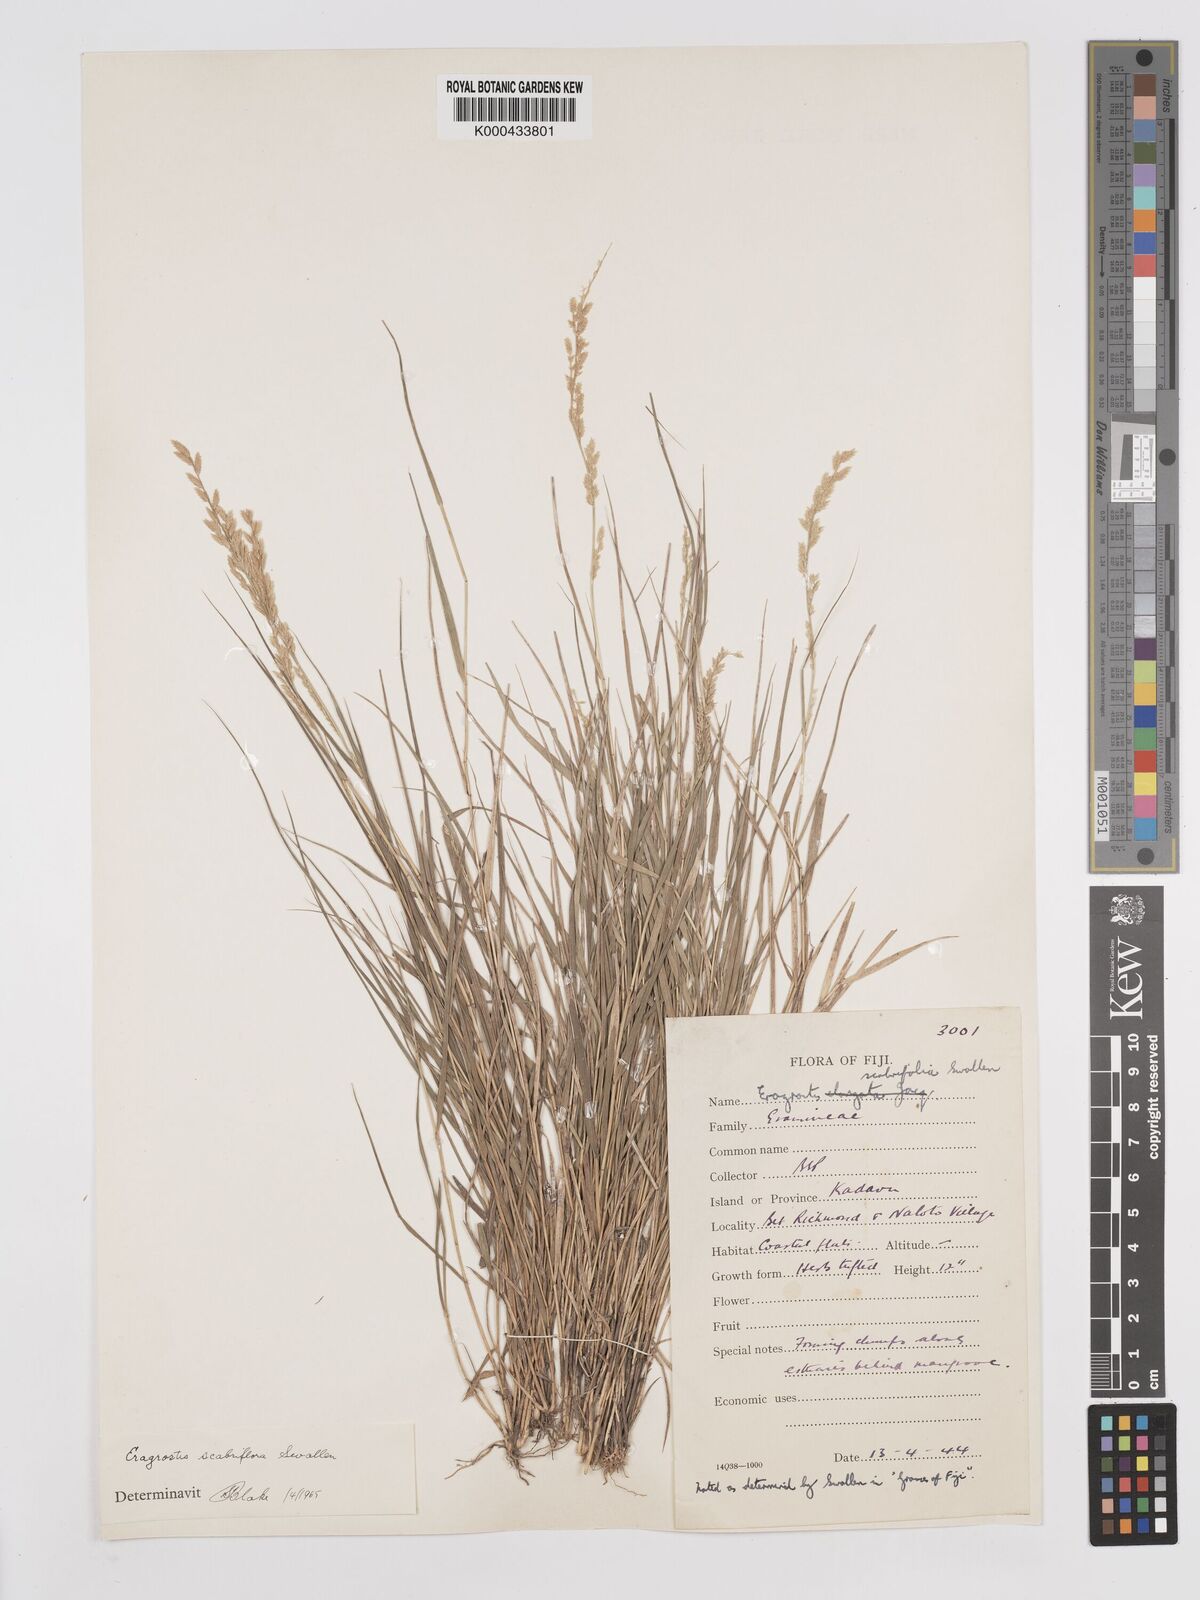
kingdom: Plantae
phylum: Tracheophyta
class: Liliopsida
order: Poales
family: Poaceae
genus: Eragrostis
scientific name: Eragrostis scabriflora
